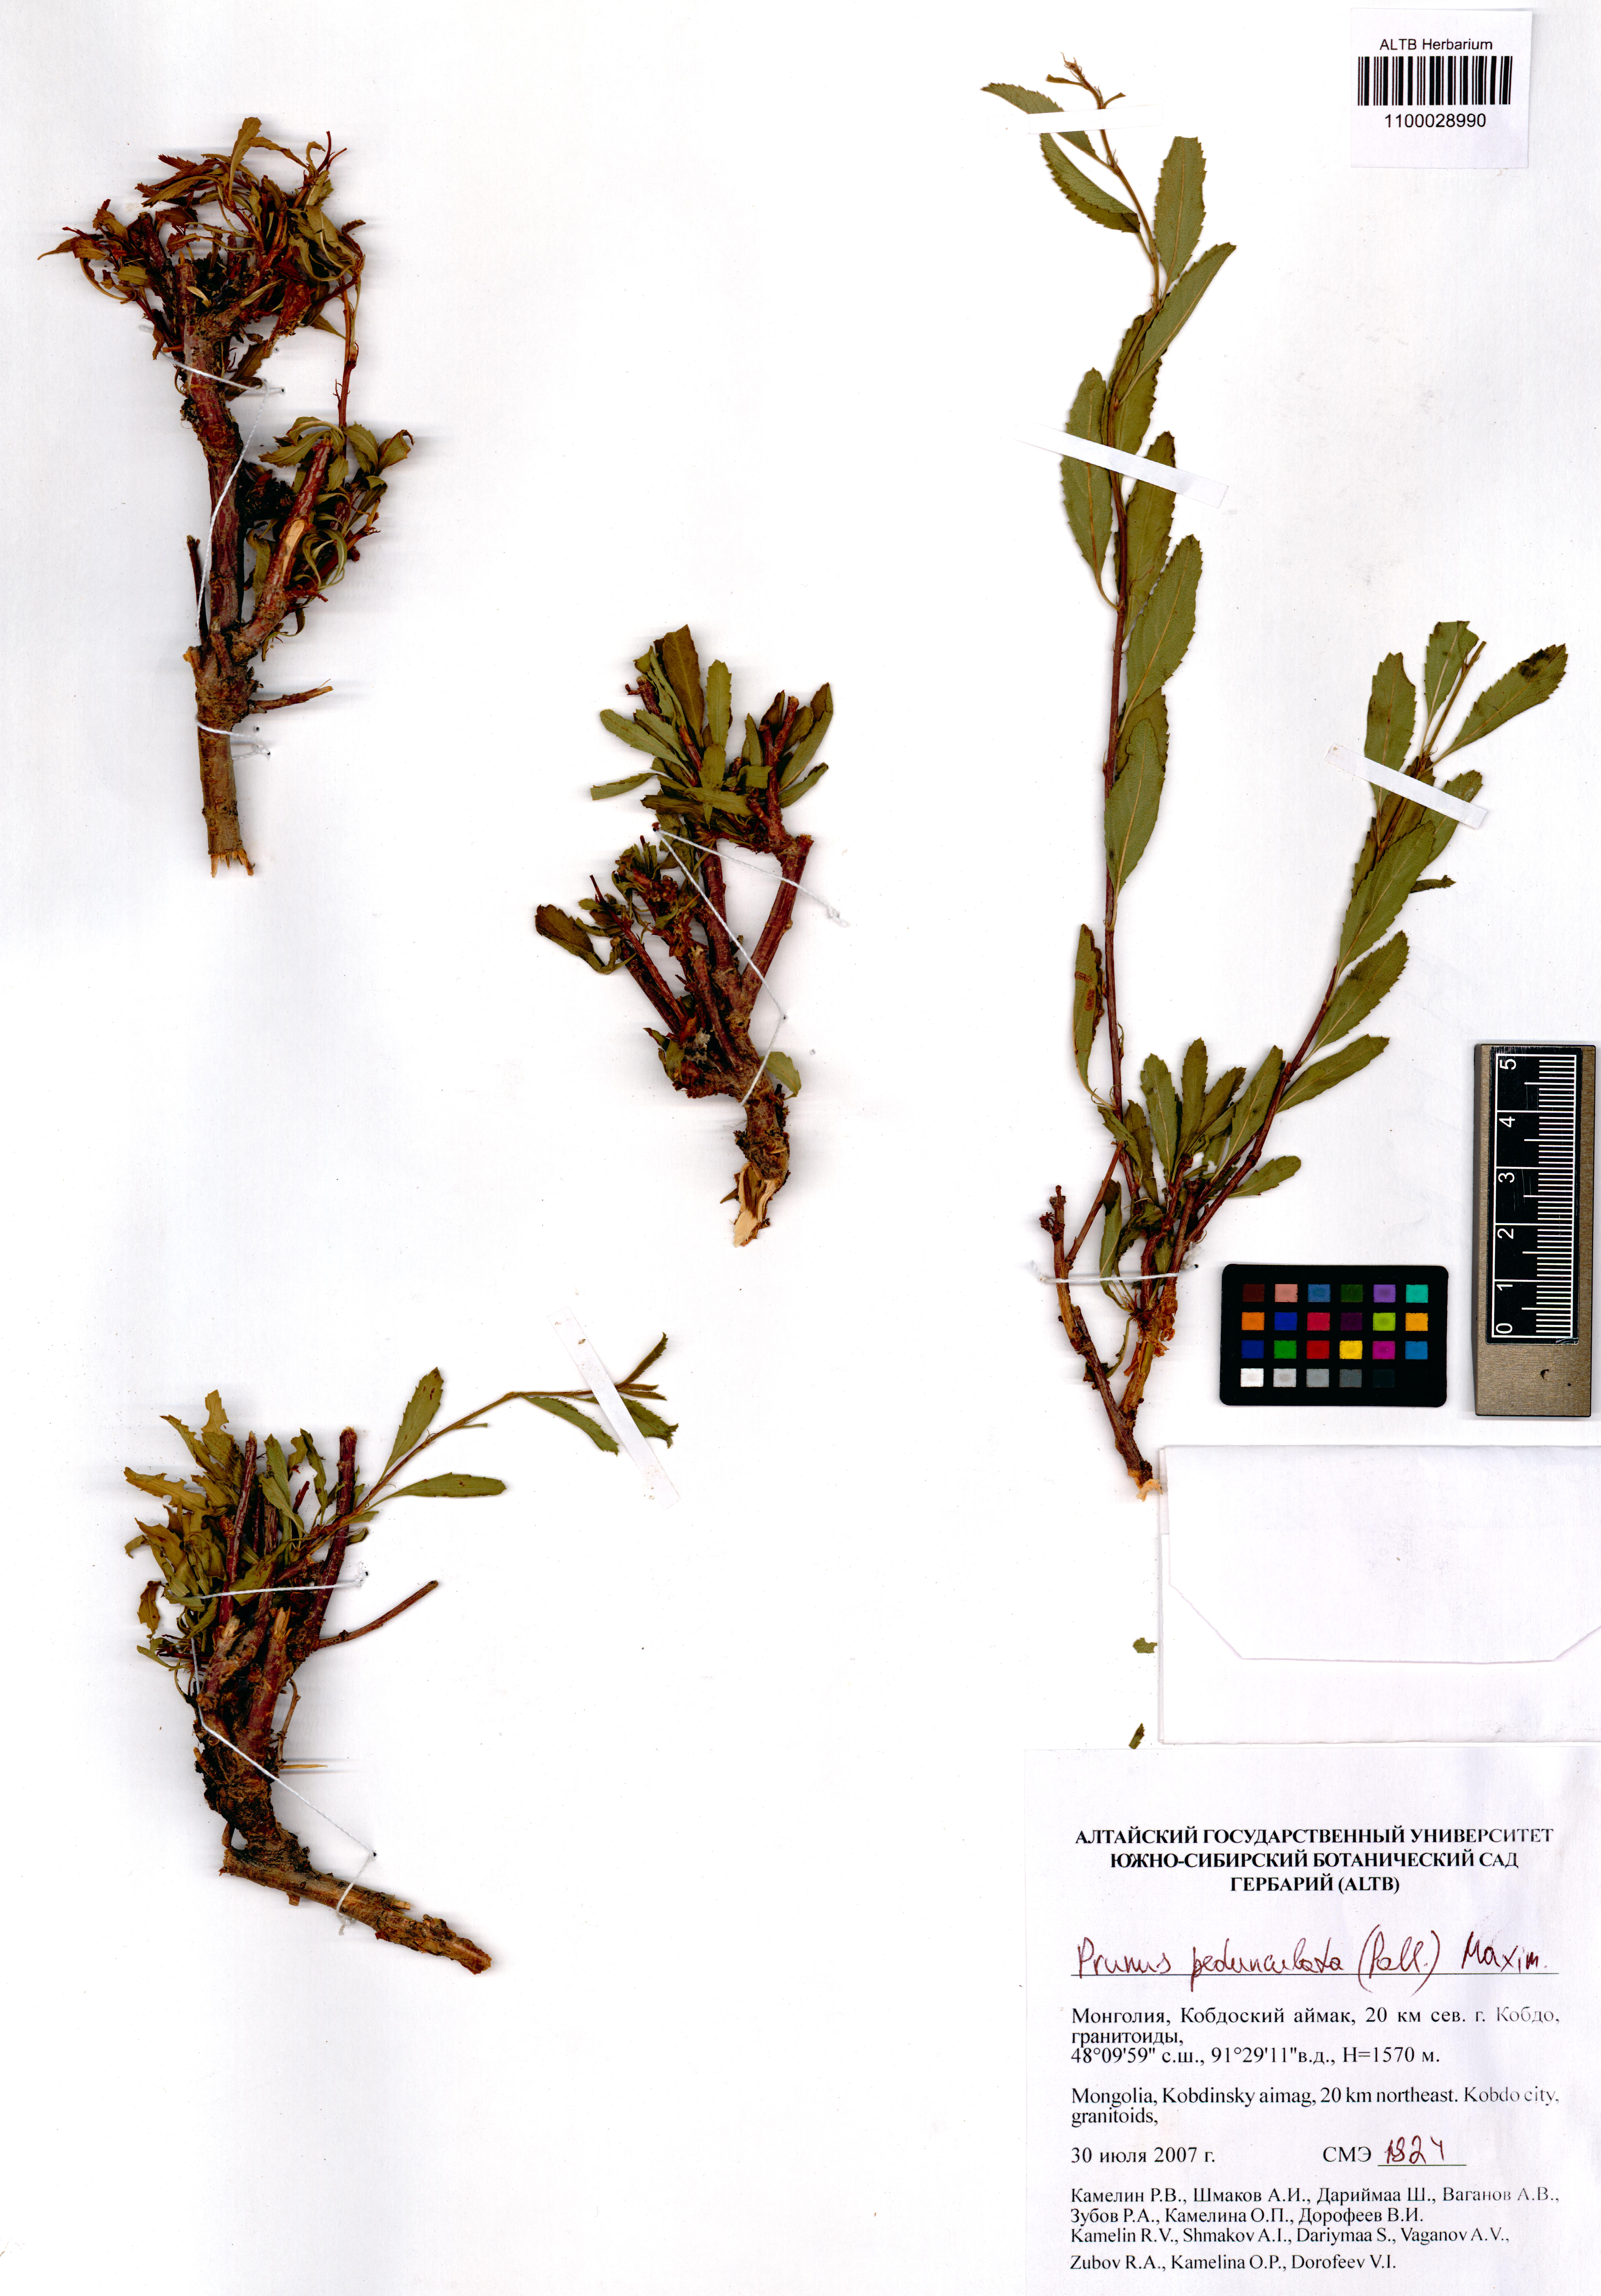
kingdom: Plantae
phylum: Tracheophyta
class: Magnoliopsida
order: Rosales
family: Rosaceae
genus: Prunus
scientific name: Prunus pedunculata
